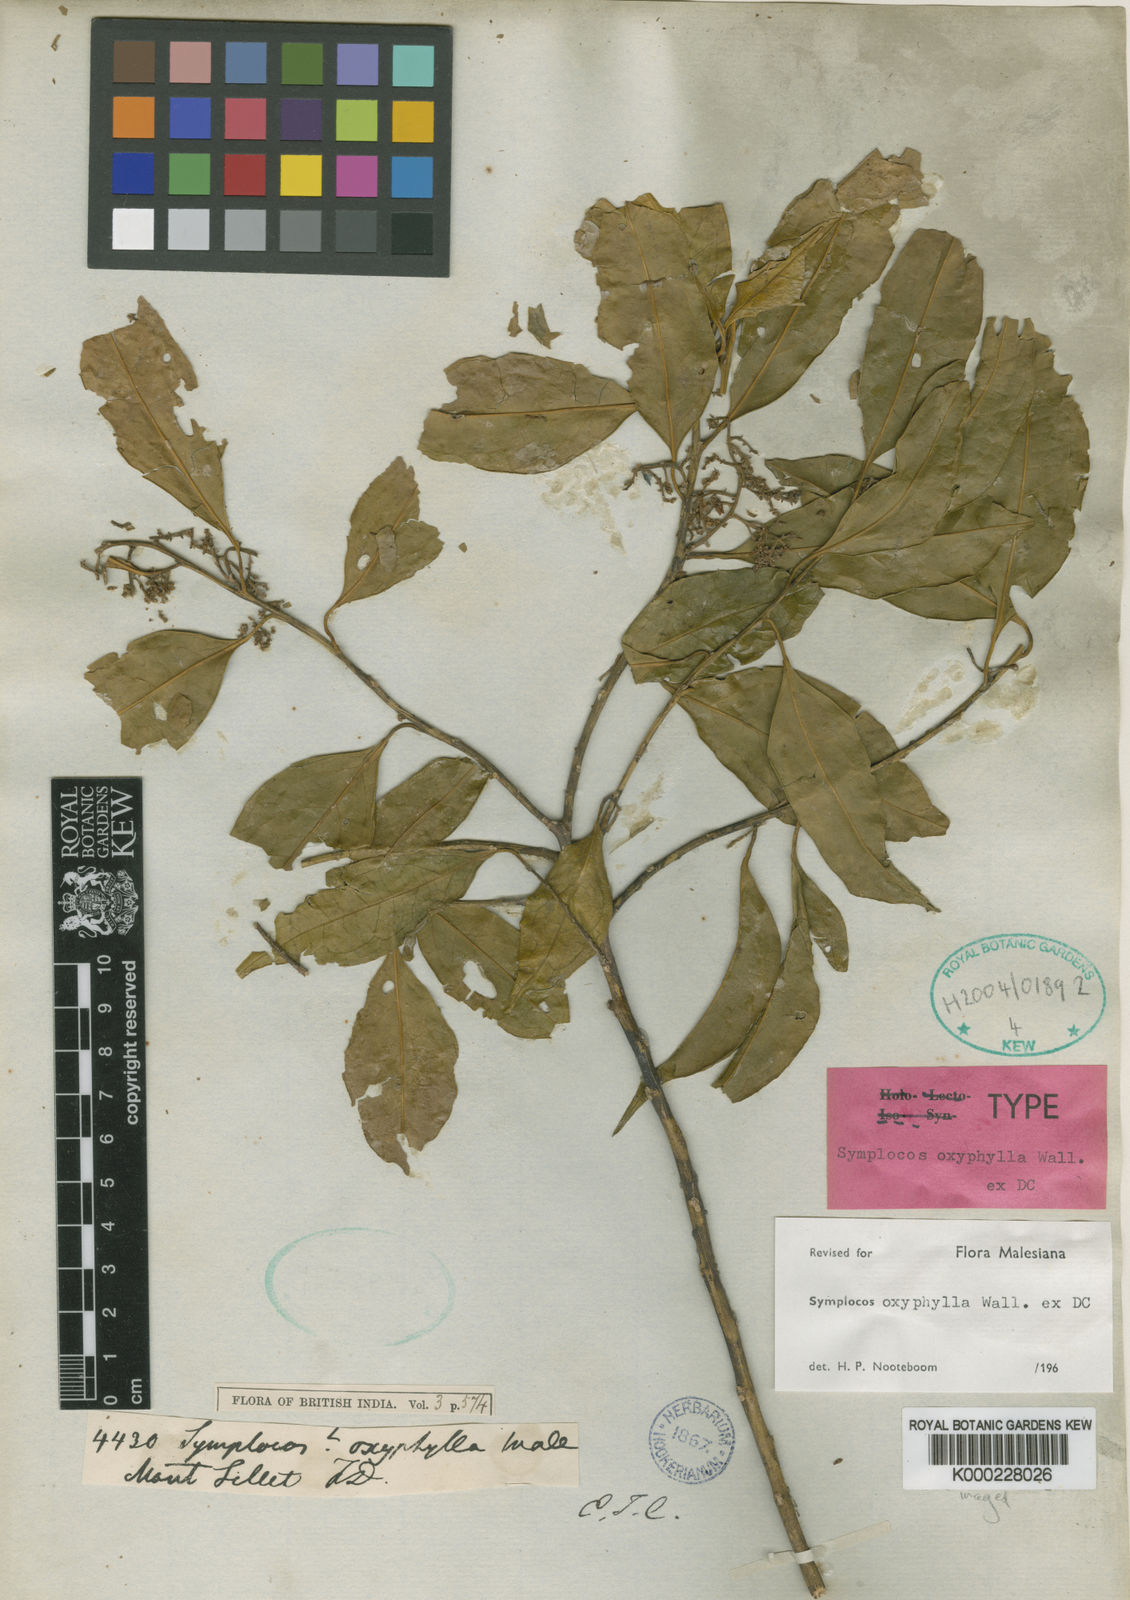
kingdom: Plantae
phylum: Tracheophyta
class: Magnoliopsida
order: Ericales
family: Symplocaceae
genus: Symplocos
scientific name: Symplocos
